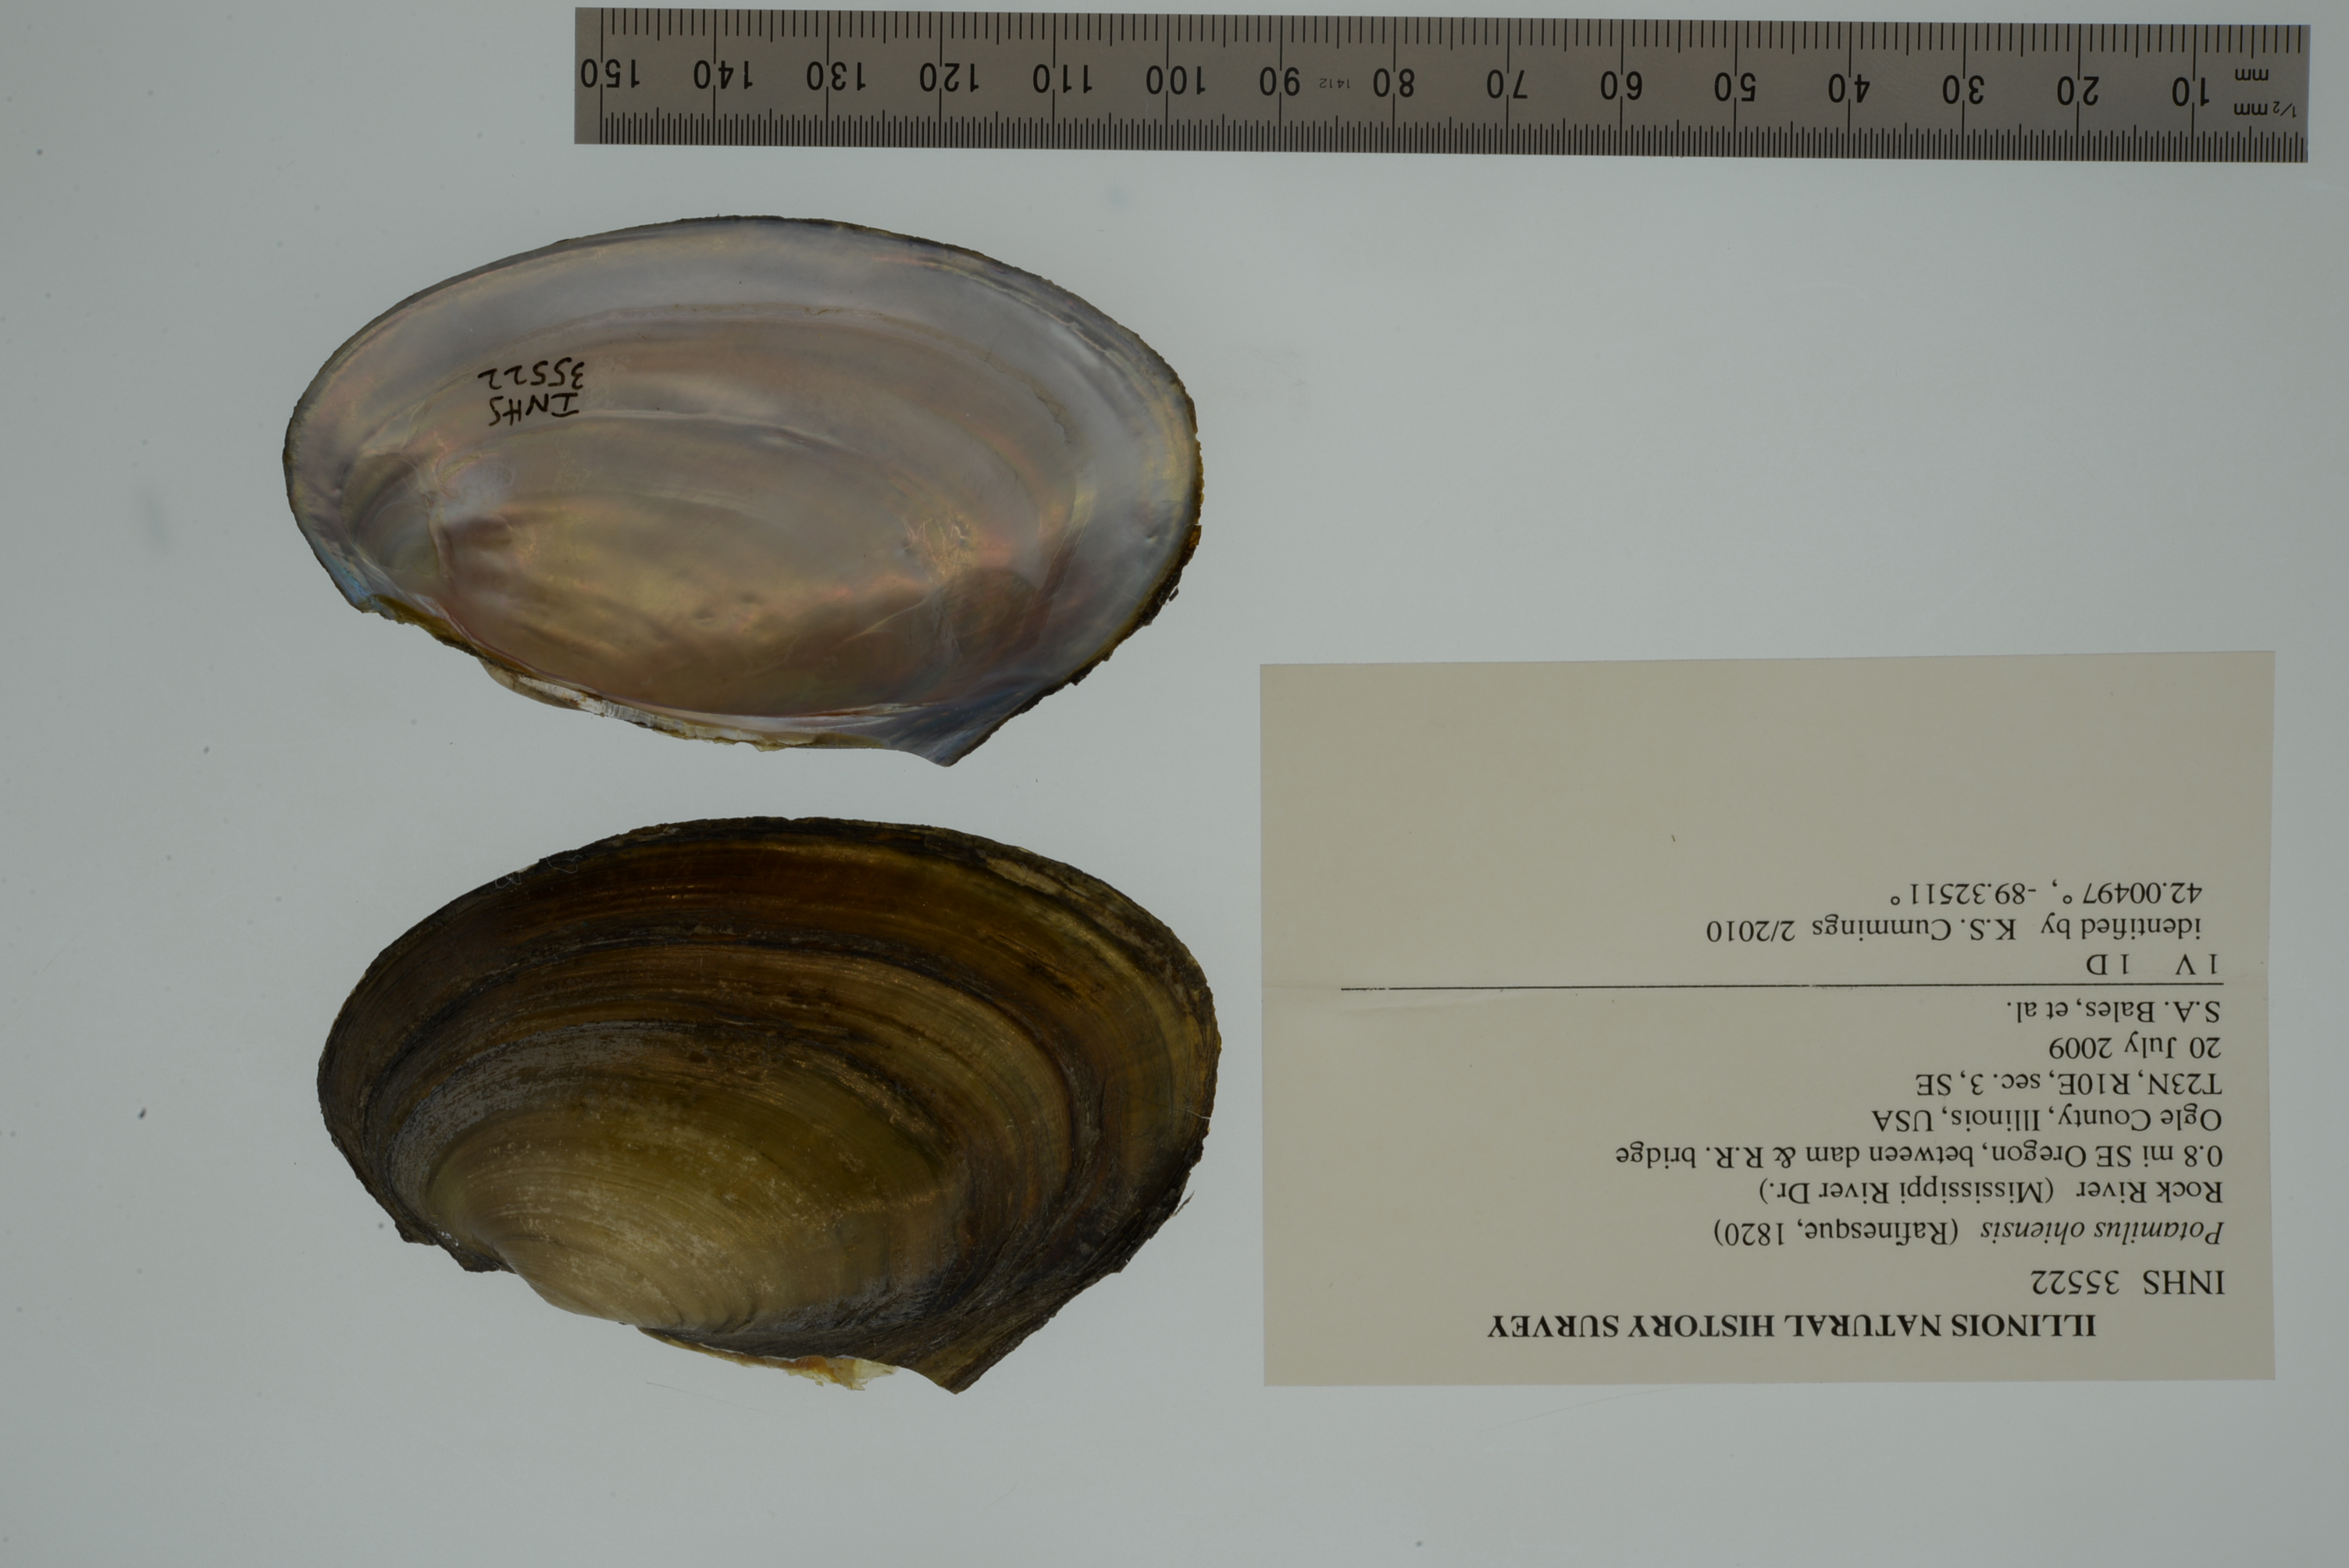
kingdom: Animalia
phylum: Mollusca
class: Bivalvia
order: Unionida
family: Unionidae
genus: Potamilus
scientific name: Potamilus ohiensis
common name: Pink papershell
